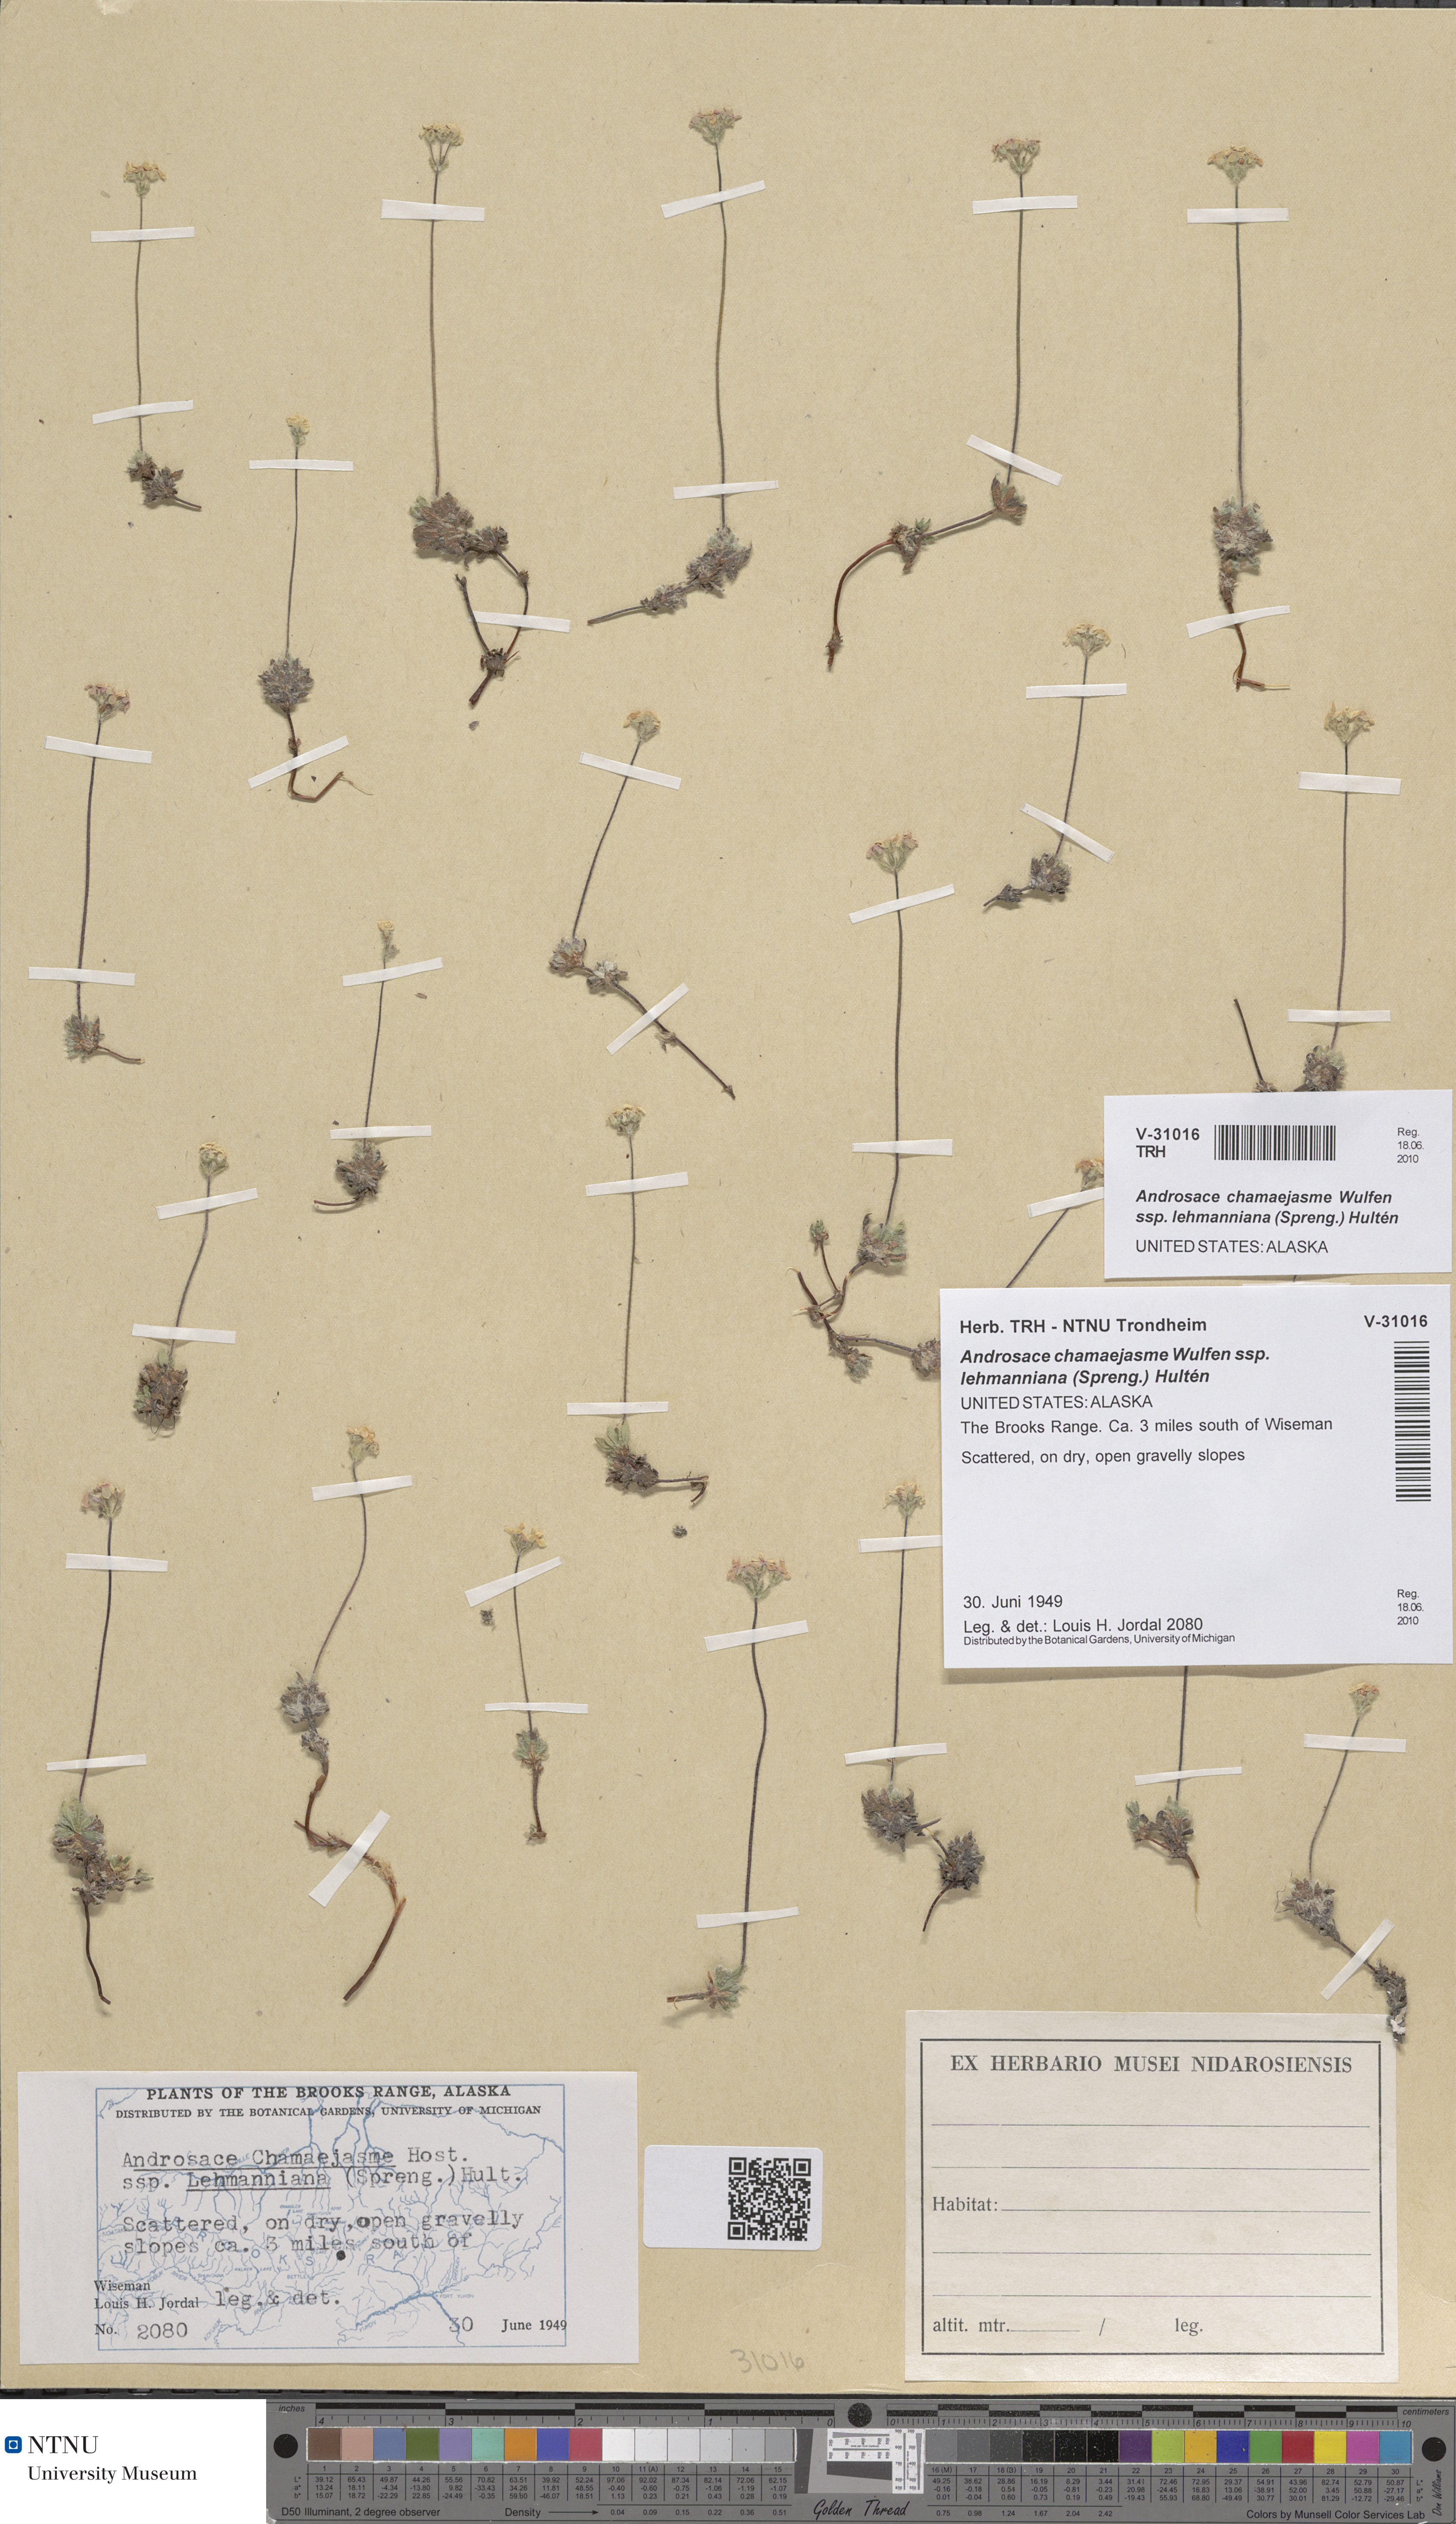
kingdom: Plantae
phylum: Tracheophyta
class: Magnoliopsida
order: Ericales
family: Primulaceae
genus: Androsace
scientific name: Androsace chamaejasme
